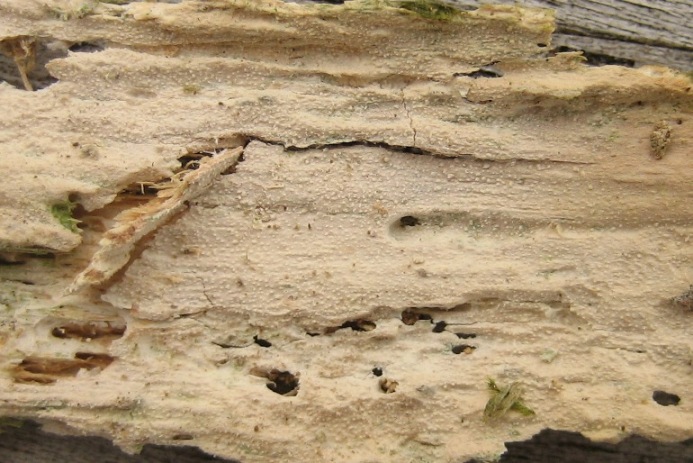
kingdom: Fungi
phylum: Basidiomycota
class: Agaricomycetes
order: Hymenochaetales
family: Rickenellaceae
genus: Resinicium
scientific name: Resinicium bicolor
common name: almindelig vokstand
